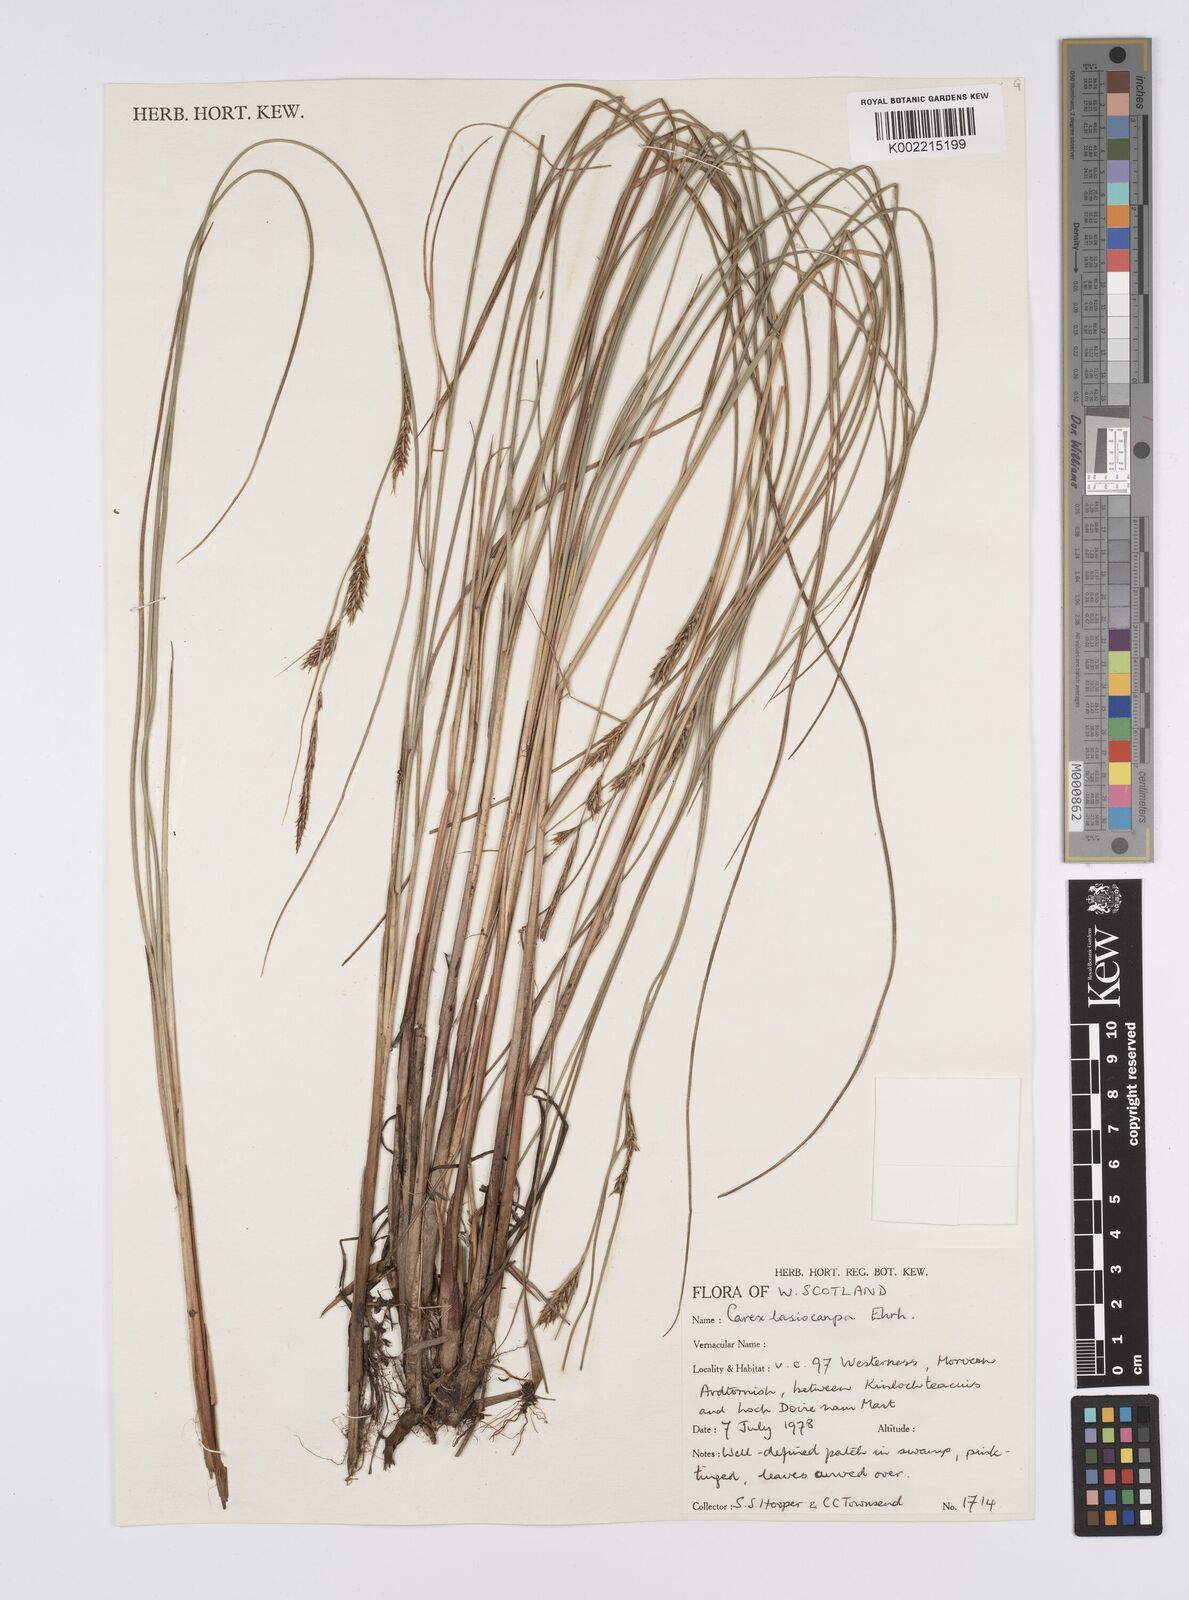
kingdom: Plantae
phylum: Tracheophyta
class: Liliopsida
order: Poales
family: Cyperaceae
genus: Carex
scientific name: Carex lasiocarpa
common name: Slender sedge
